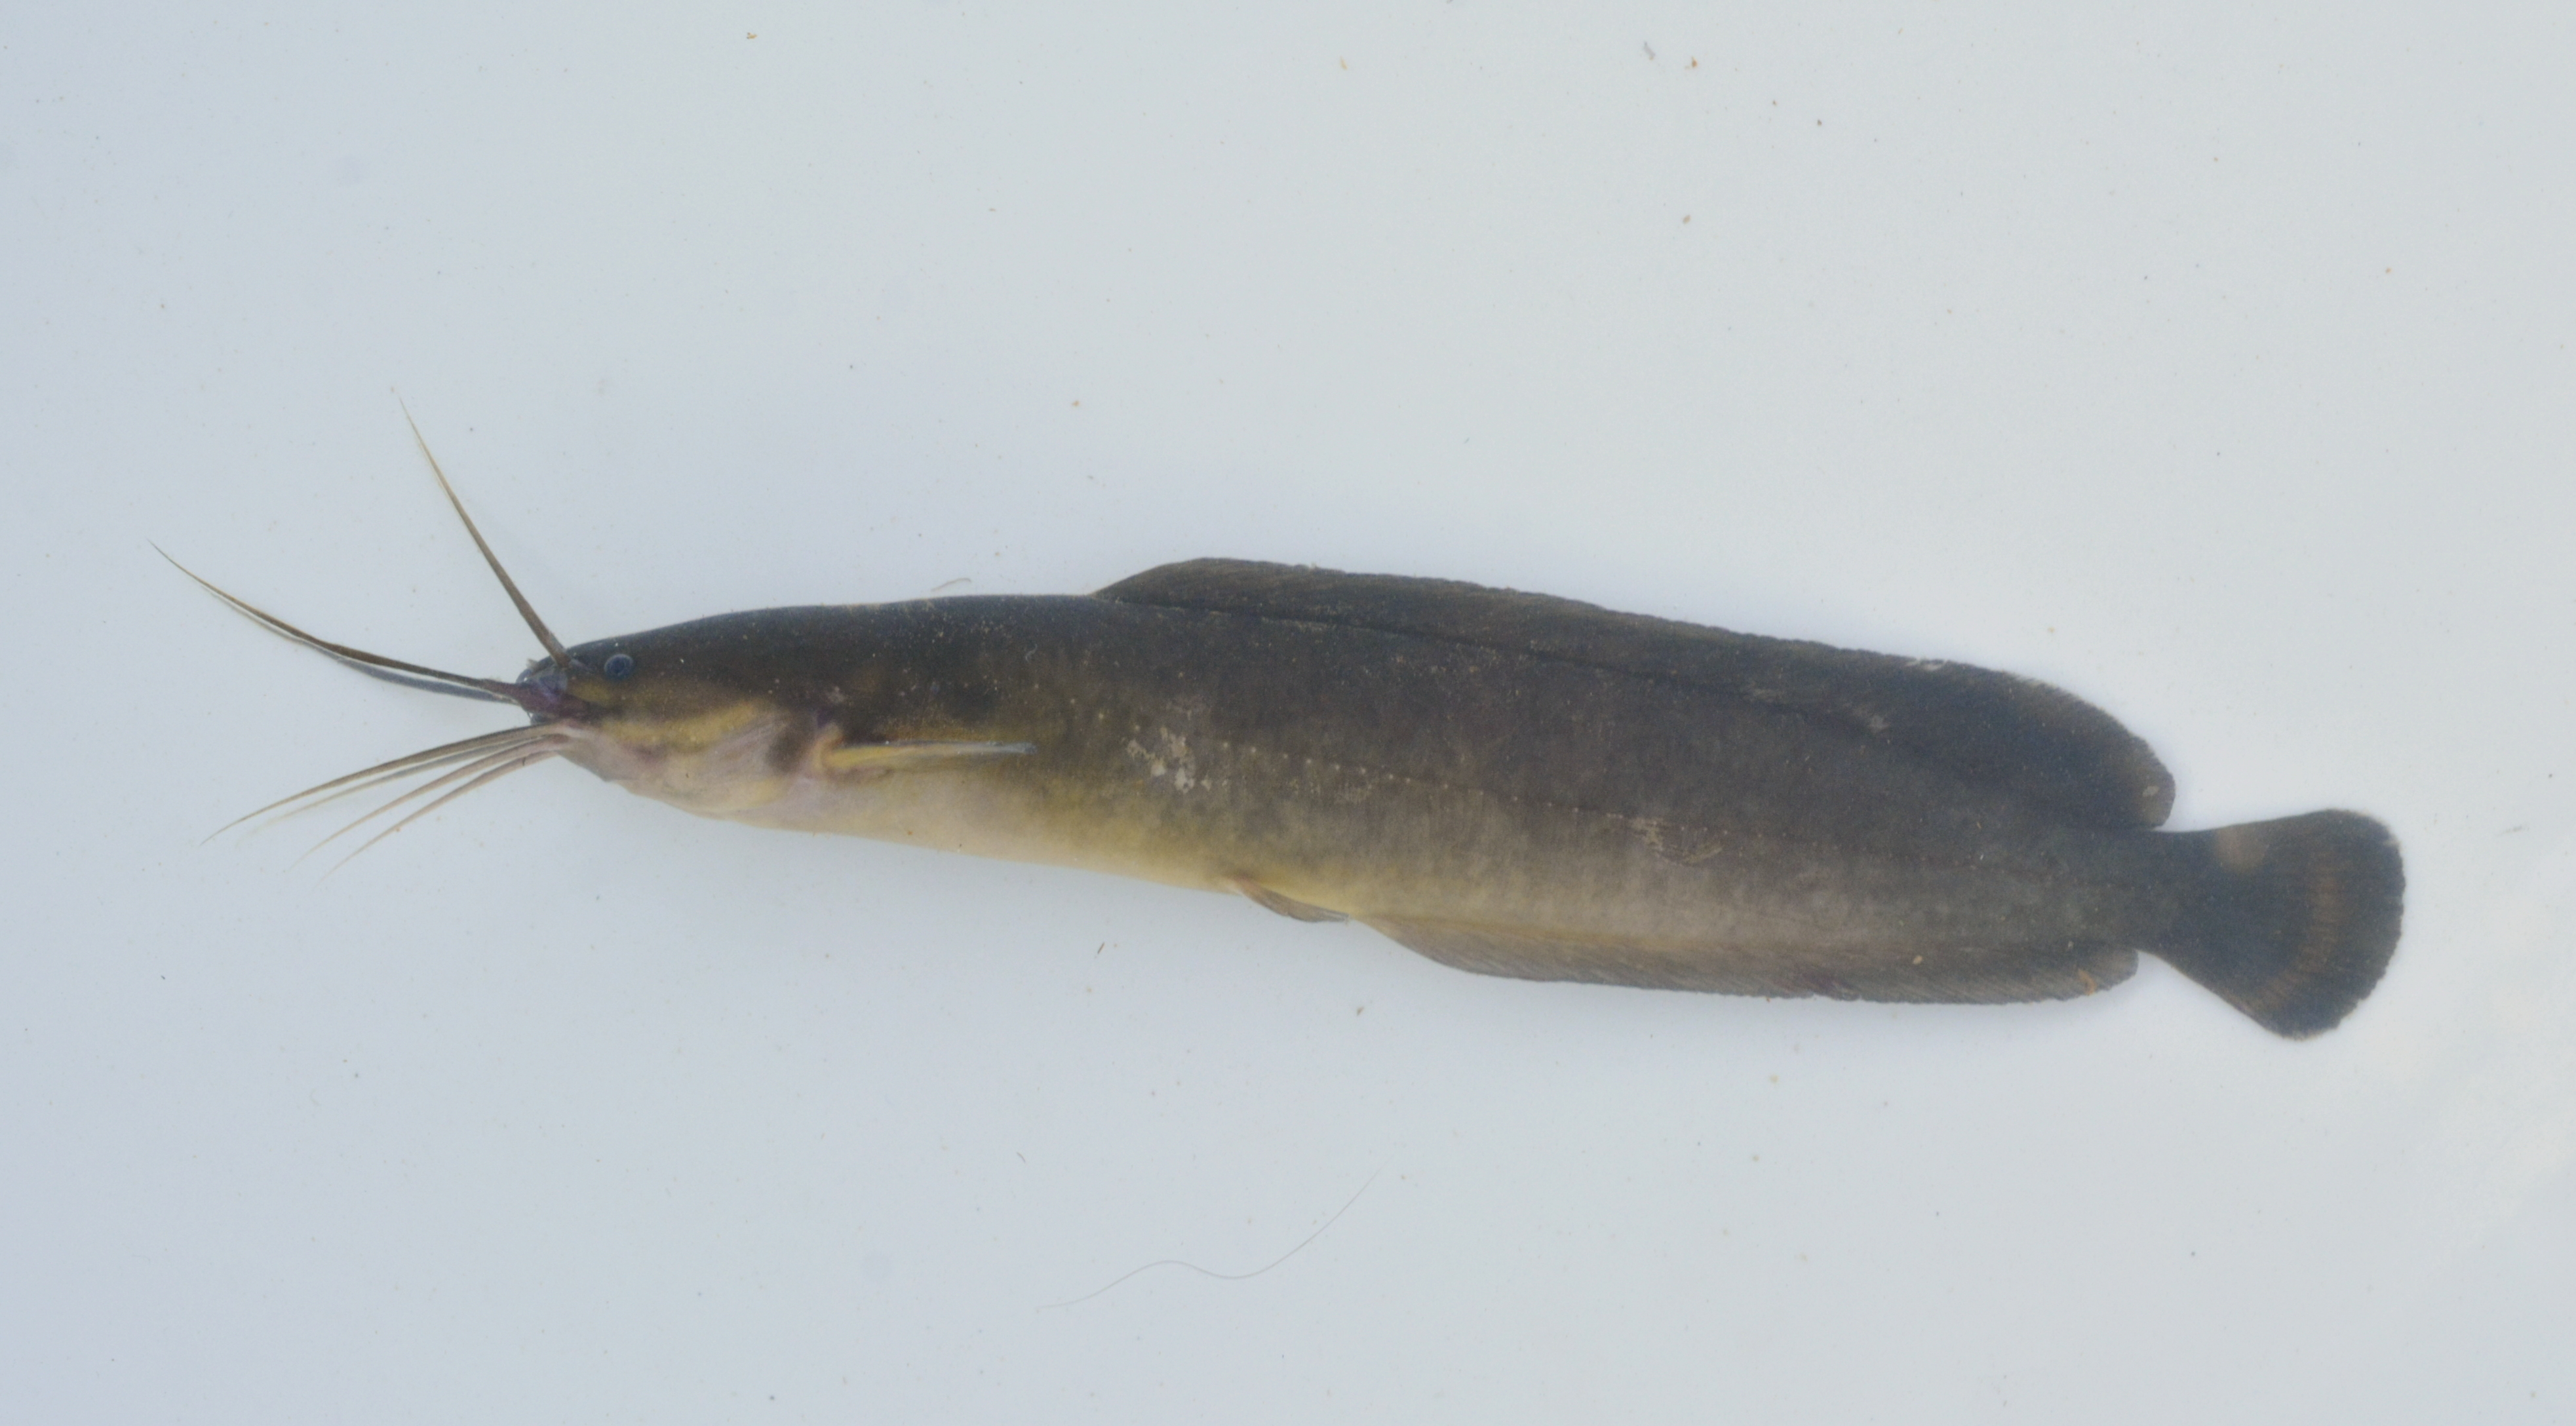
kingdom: Animalia
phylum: Chordata
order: Siluriformes
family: Clariidae
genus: Clarias
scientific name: Clarias liocephalus
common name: Smooth-head catfish
